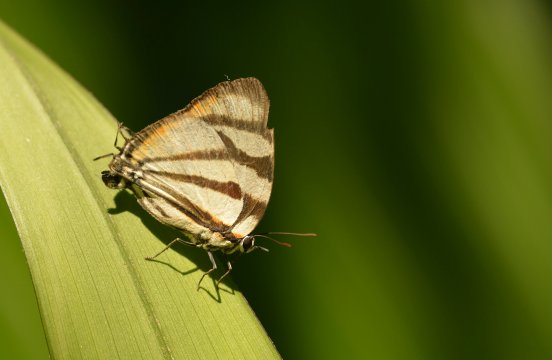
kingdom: Animalia
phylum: Arthropoda
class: Insecta
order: Lepidoptera
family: Lycaenidae
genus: Cycnus
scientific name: Cycnus phaleros
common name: Phaleros Hairstreak
